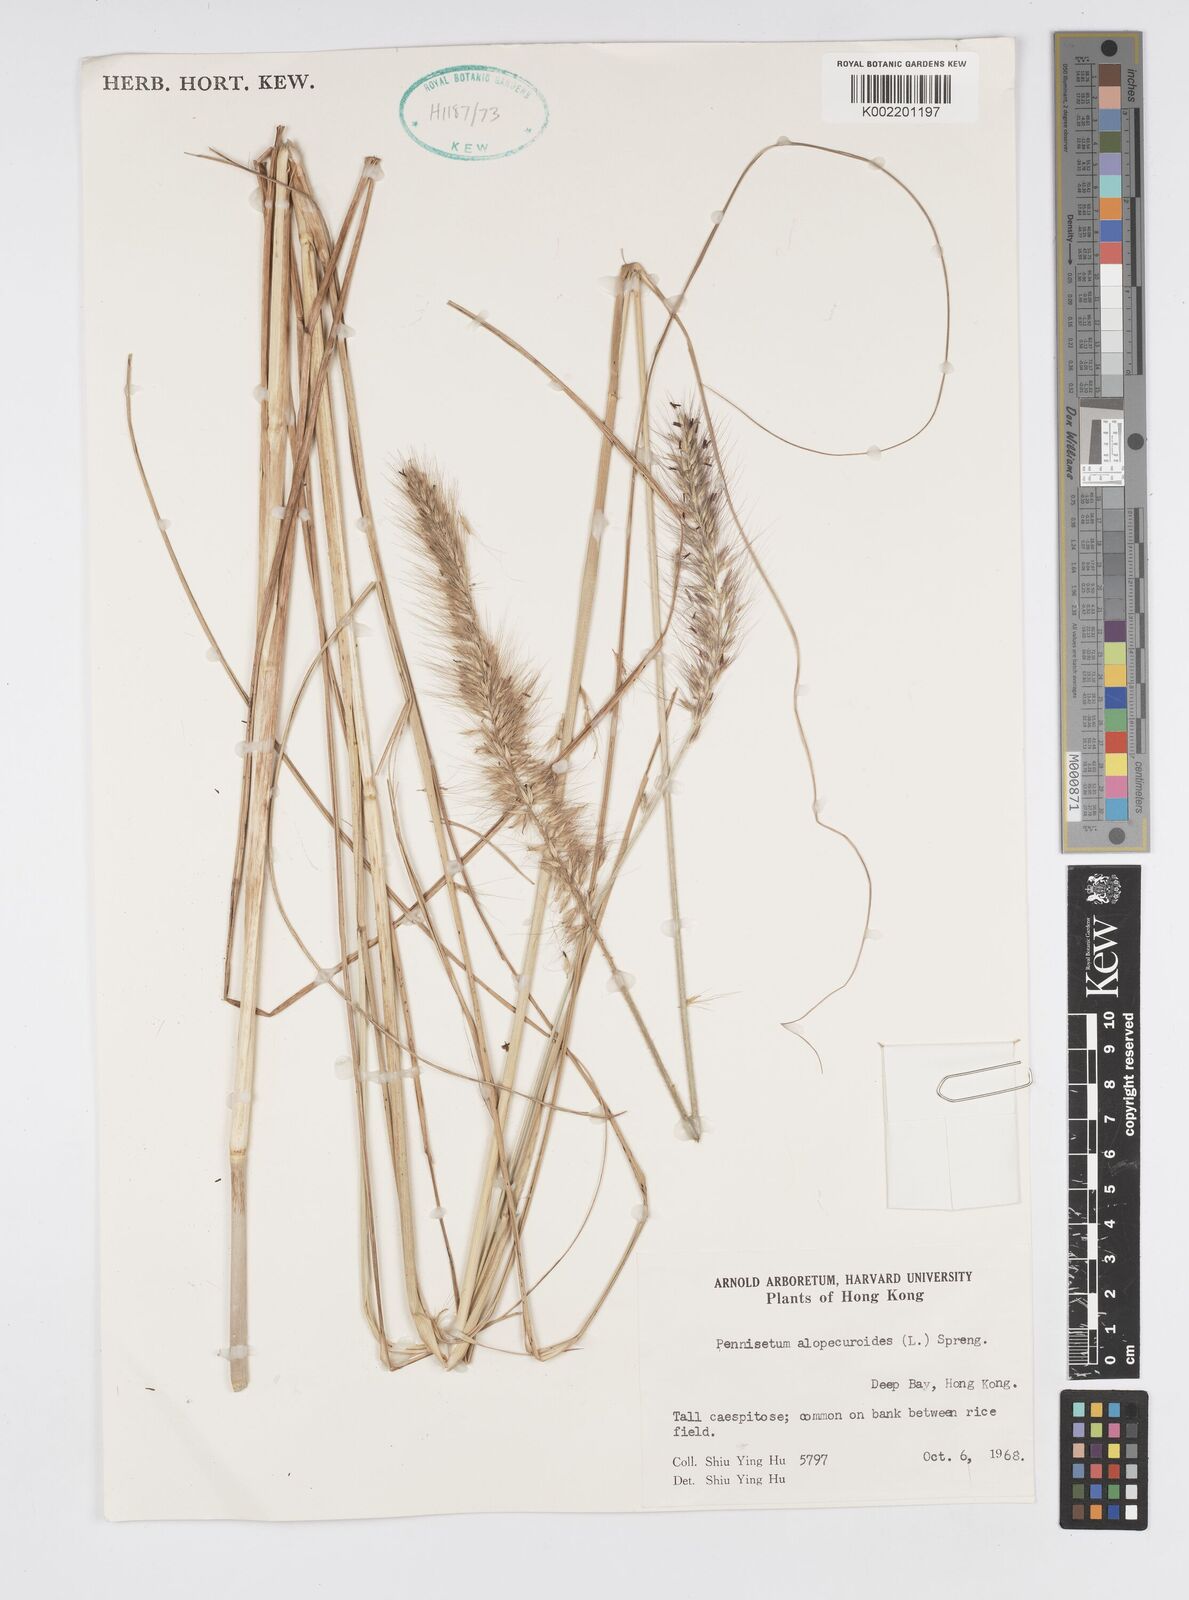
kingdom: Plantae
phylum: Tracheophyta
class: Liliopsida
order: Poales
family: Poaceae
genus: Cenchrus
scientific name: Cenchrus alopecuroides
